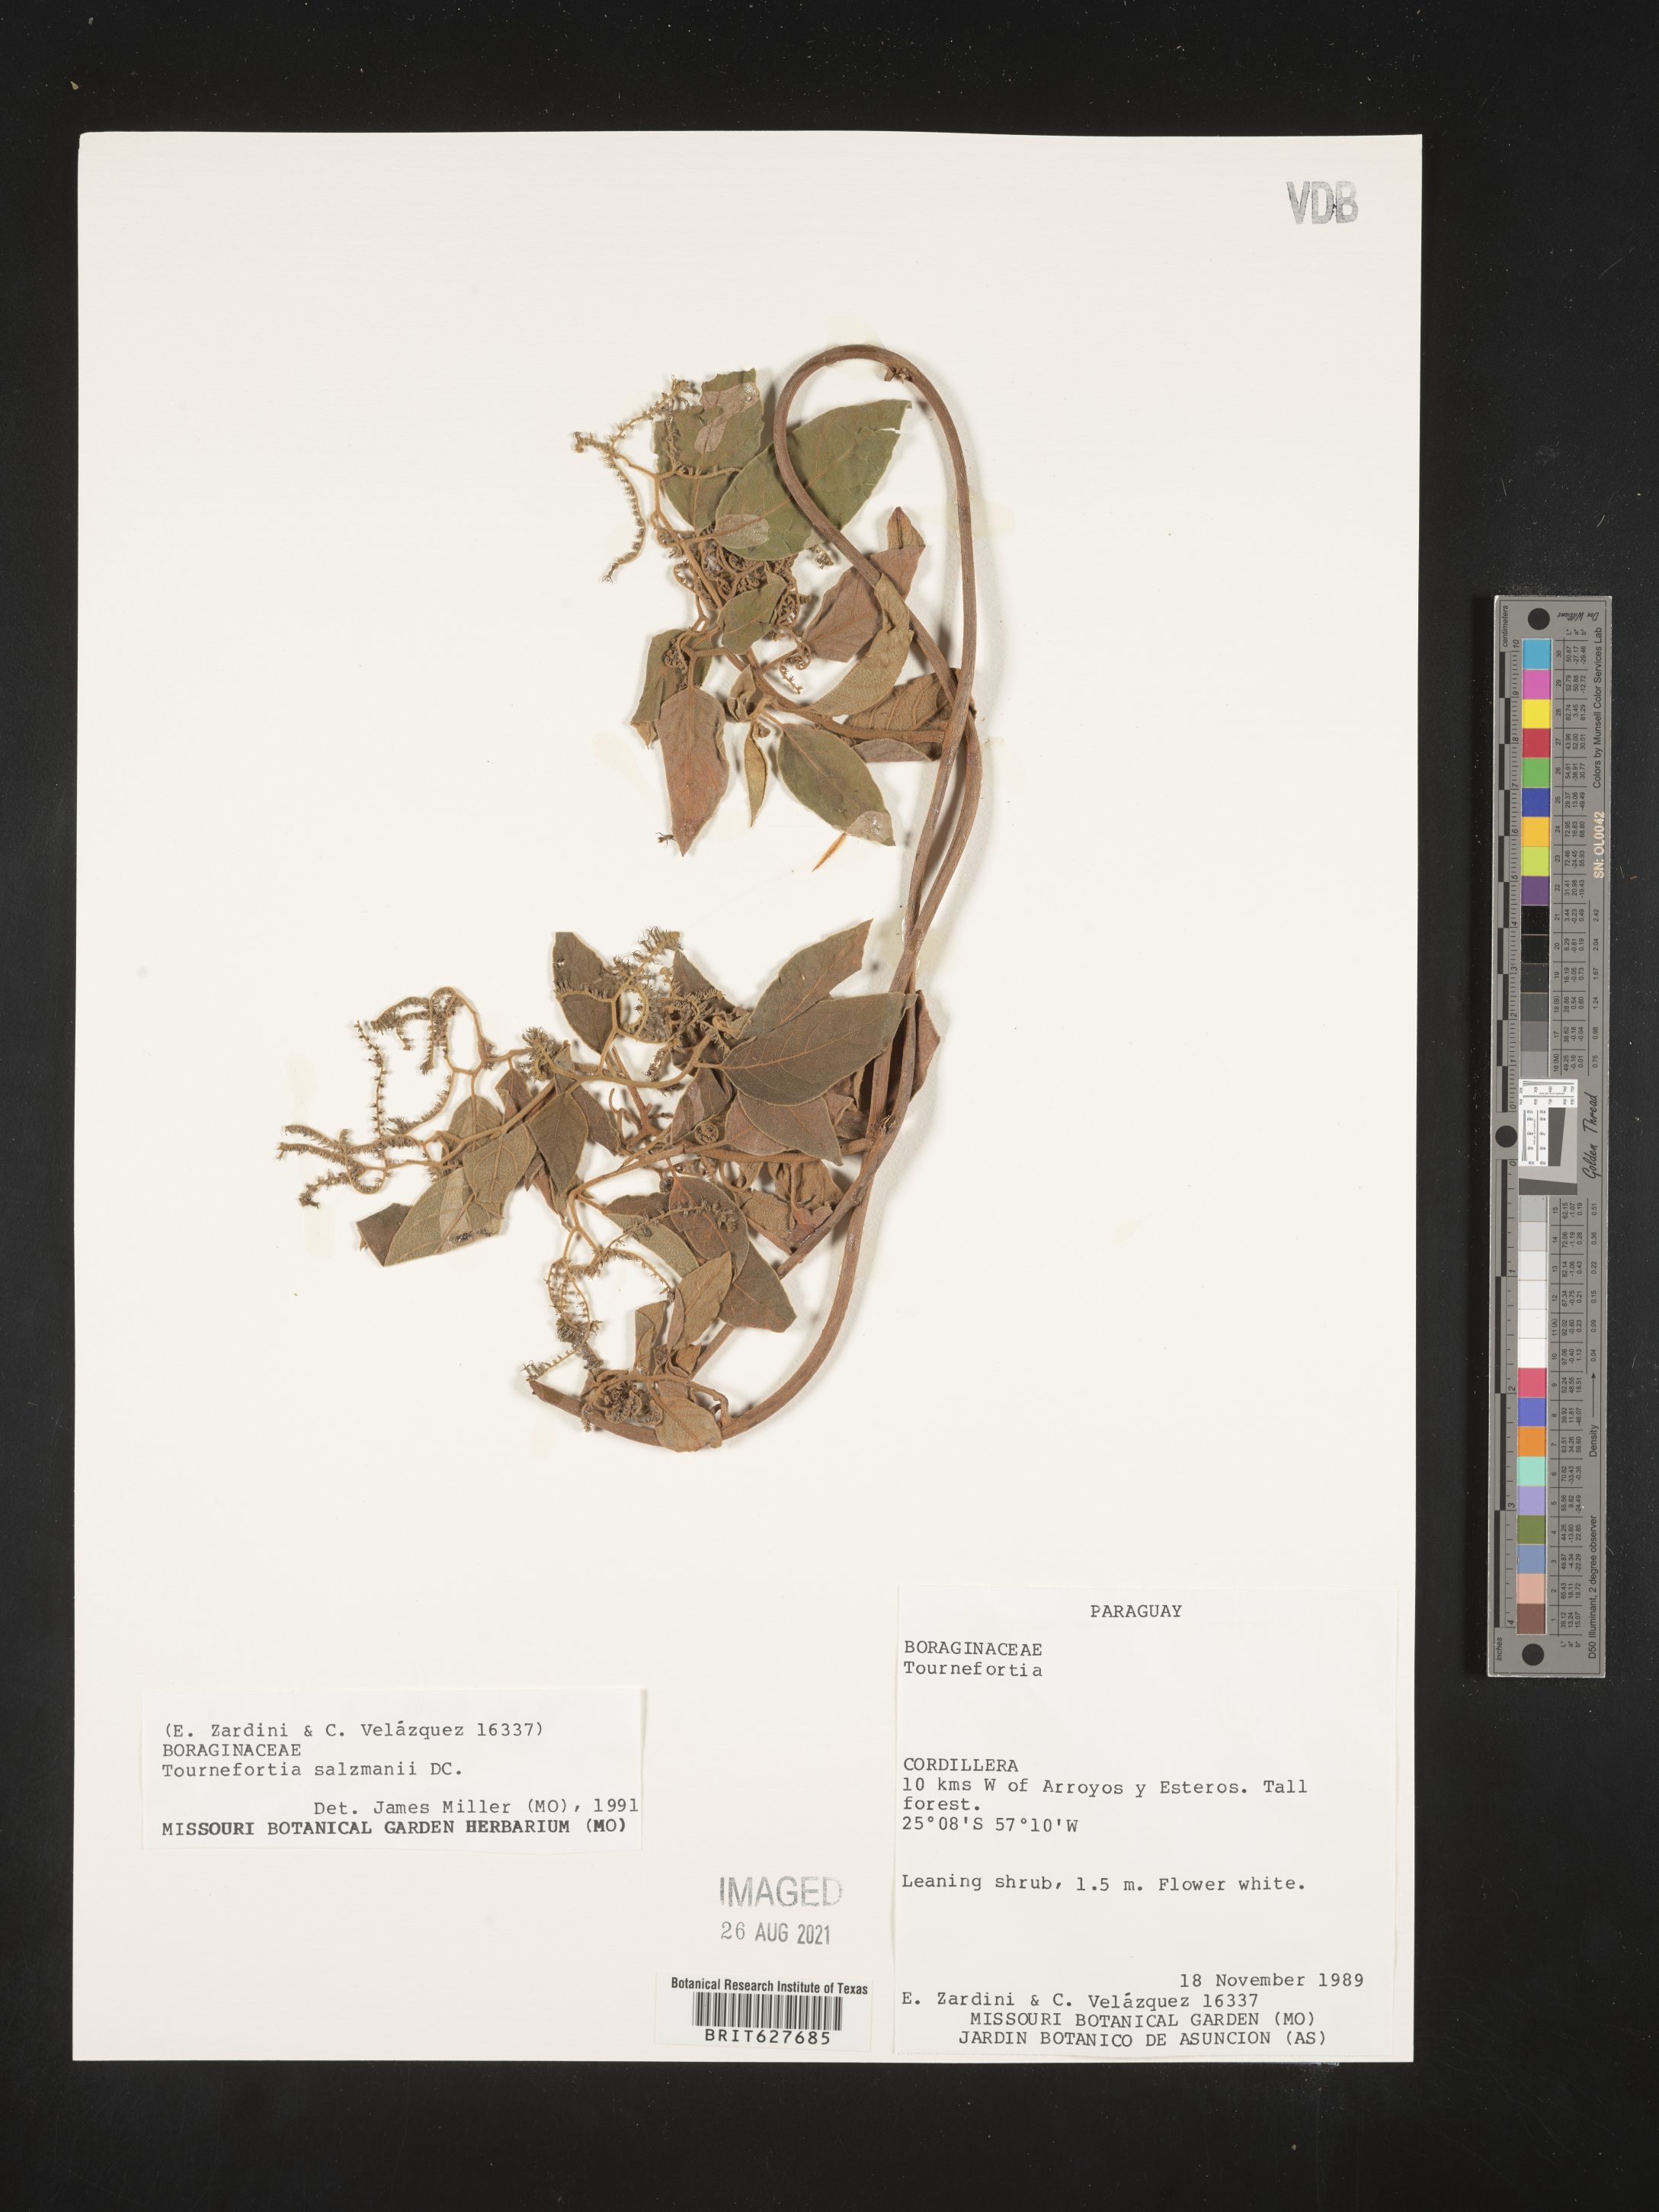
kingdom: Plantae
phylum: Tracheophyta
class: Magnoliopsida
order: Boraginales
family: Heliotropiaceae
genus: Myriopus
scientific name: Myriopus salzmannii
